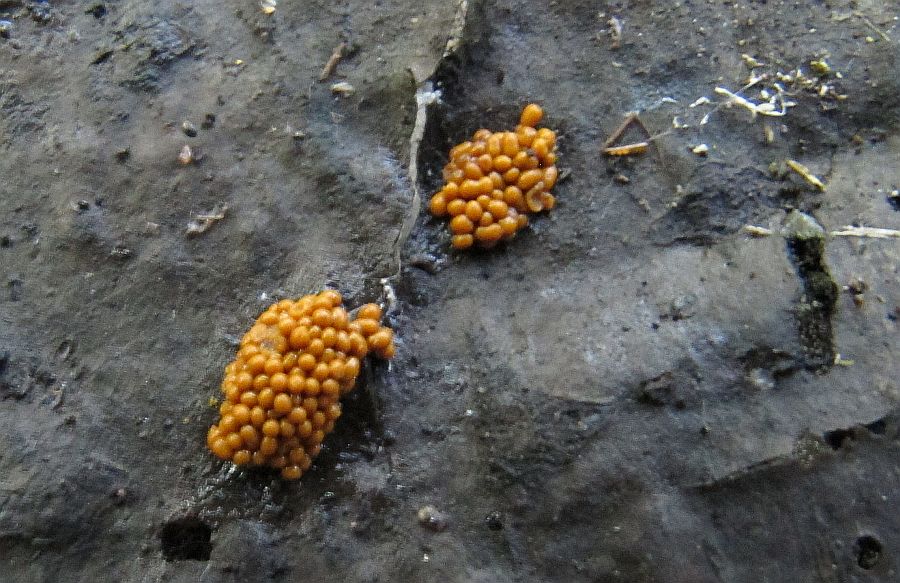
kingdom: Protozoa
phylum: Mycetozoa
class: Myxomycetes
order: Trichiales
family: Trichiaceae
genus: Oligonema
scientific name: Oligonema flavidum
